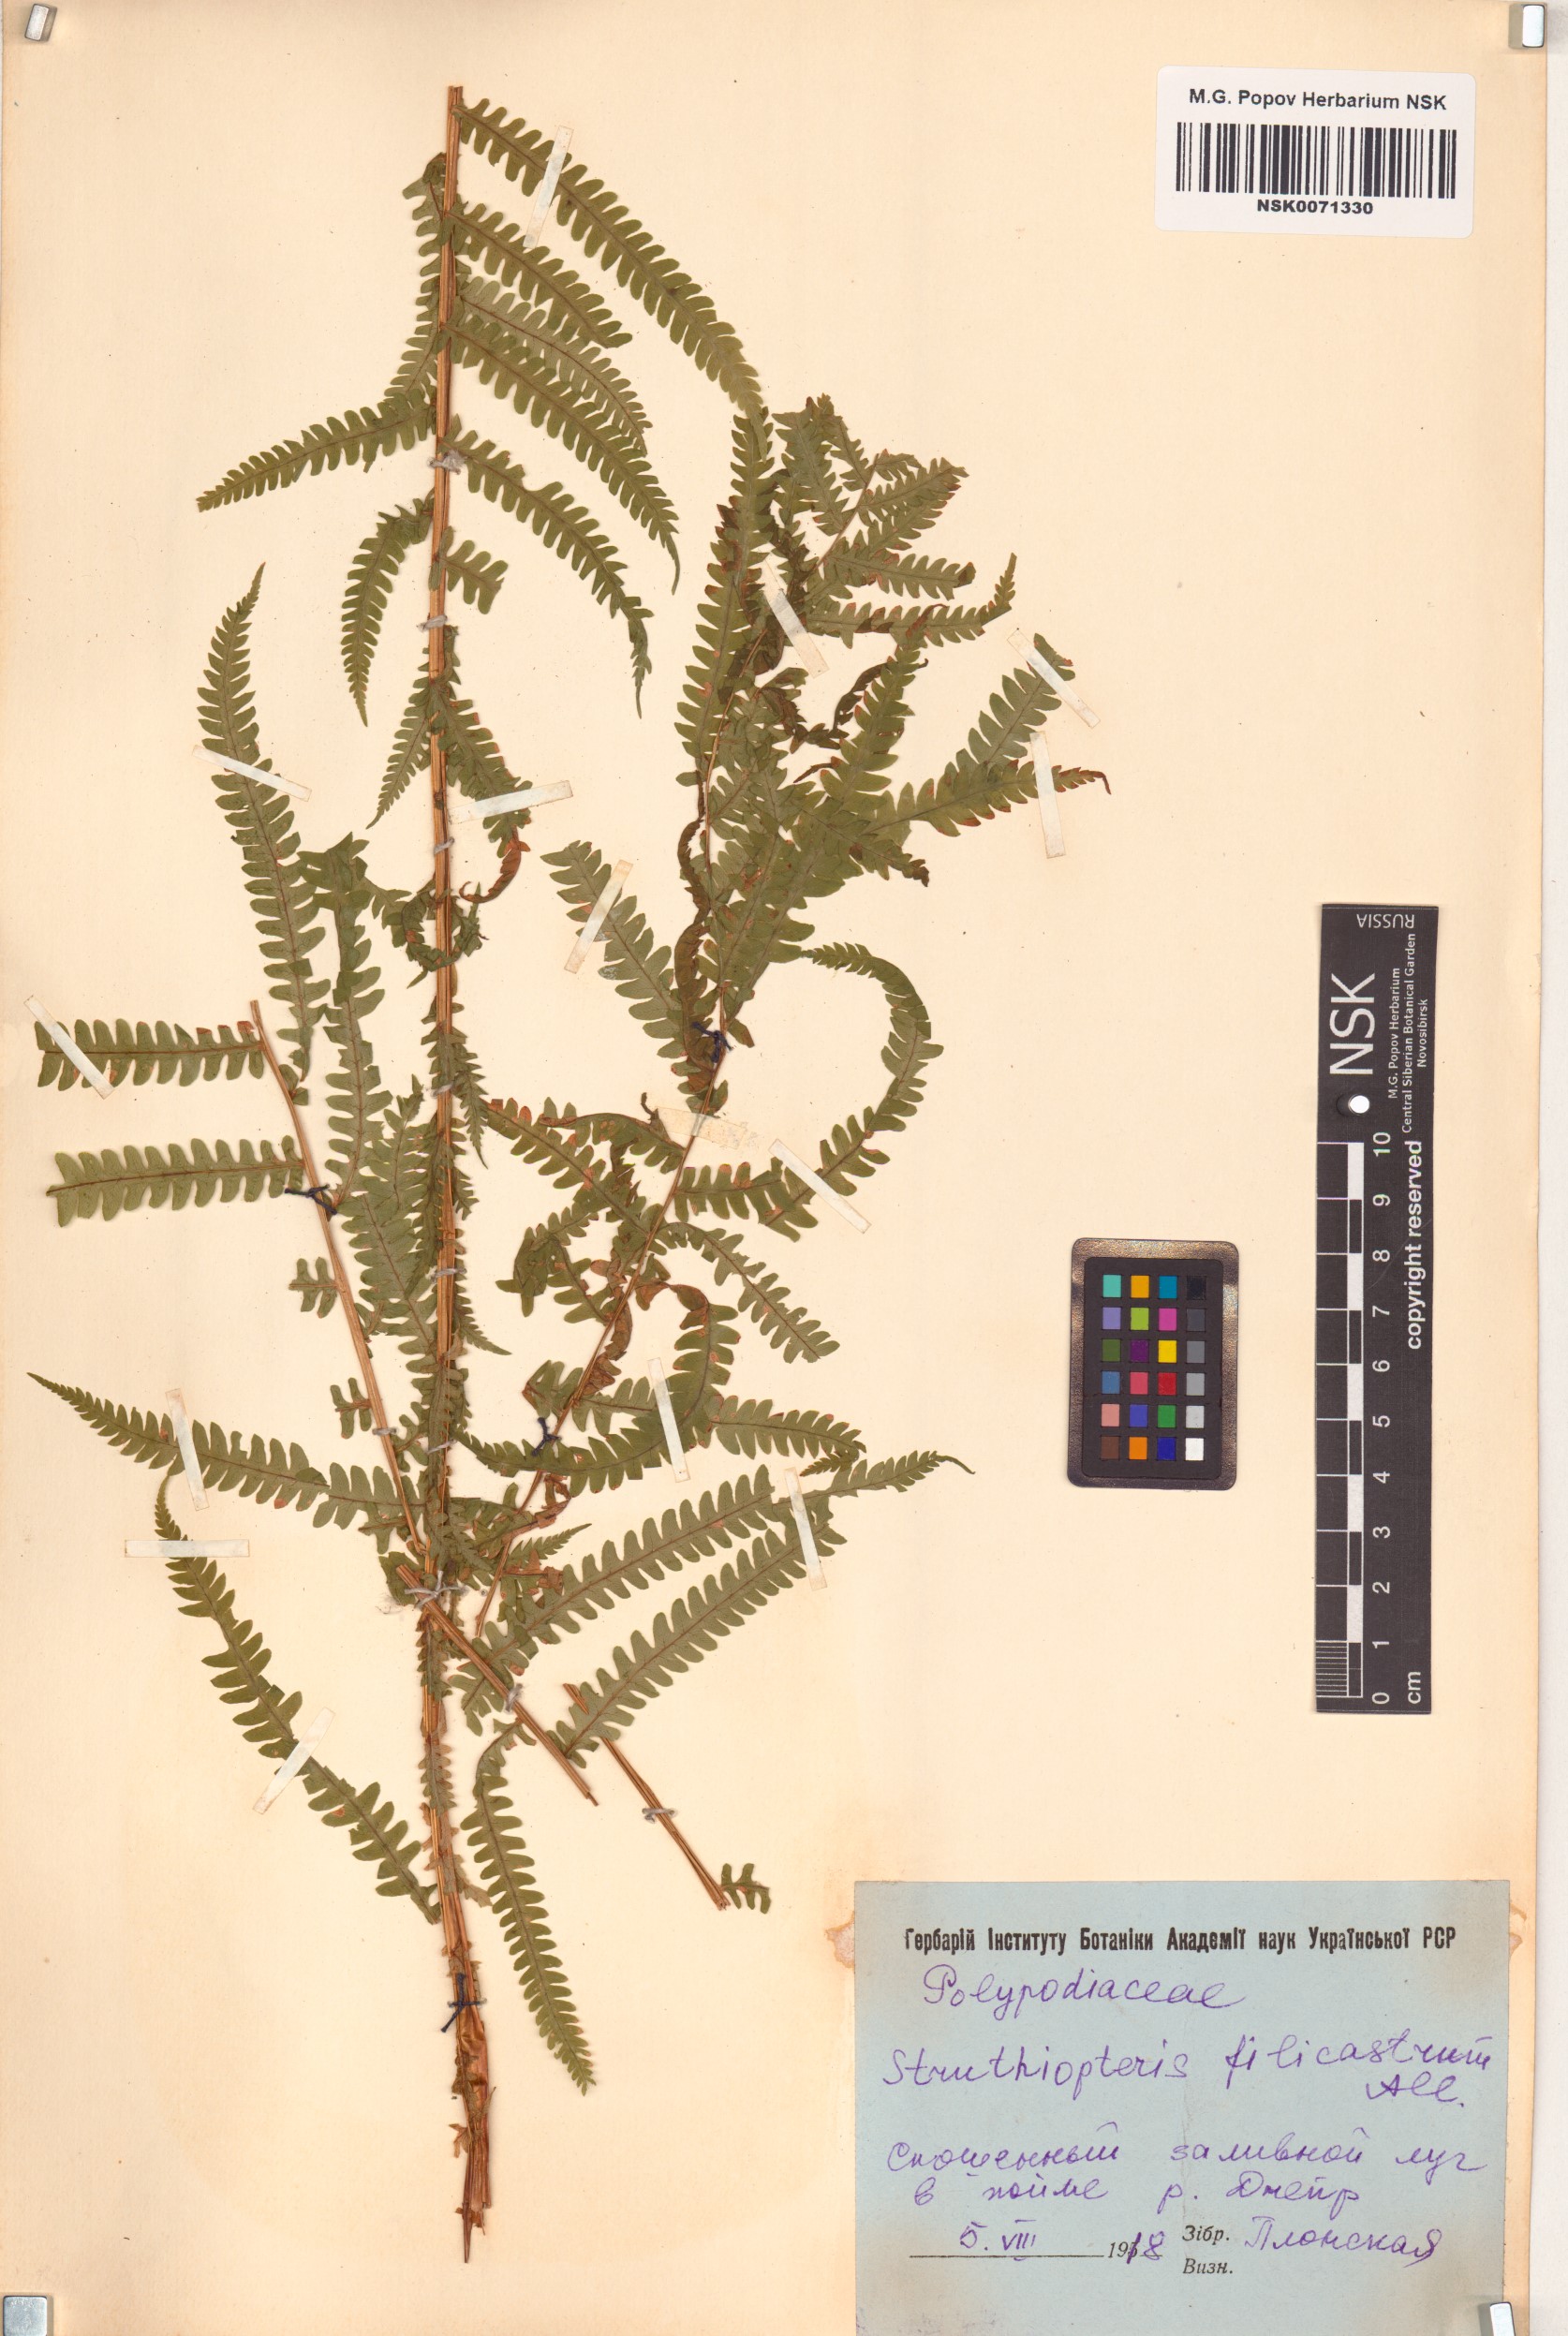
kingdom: Plantae
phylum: Tracheophyta
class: Polypodiopsida
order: Polypodiales
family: Onocleaceae
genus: Matteuccia
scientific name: Matteuccia struthiopteris
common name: Ostrich fern
